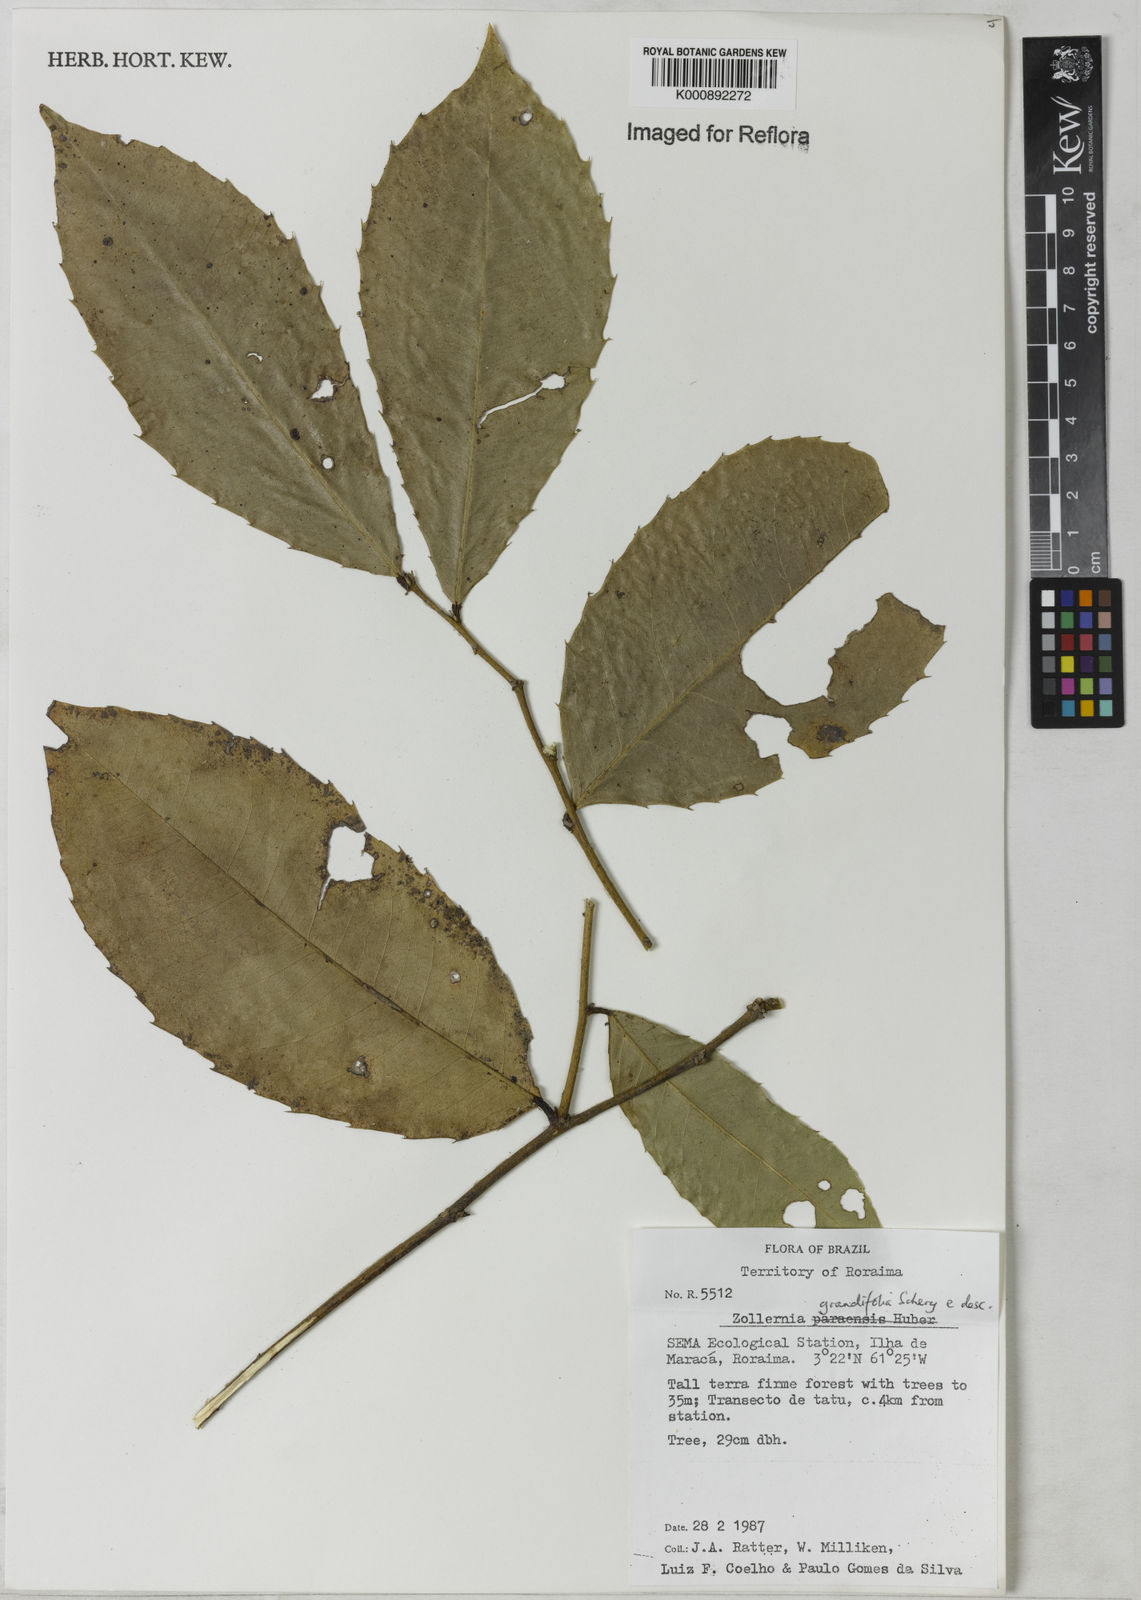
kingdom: Plantae
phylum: Tracheophyta
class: Magnoliopsida
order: Fabales
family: Fabaceae
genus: Zollernia
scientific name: Zollernia grandifolia
